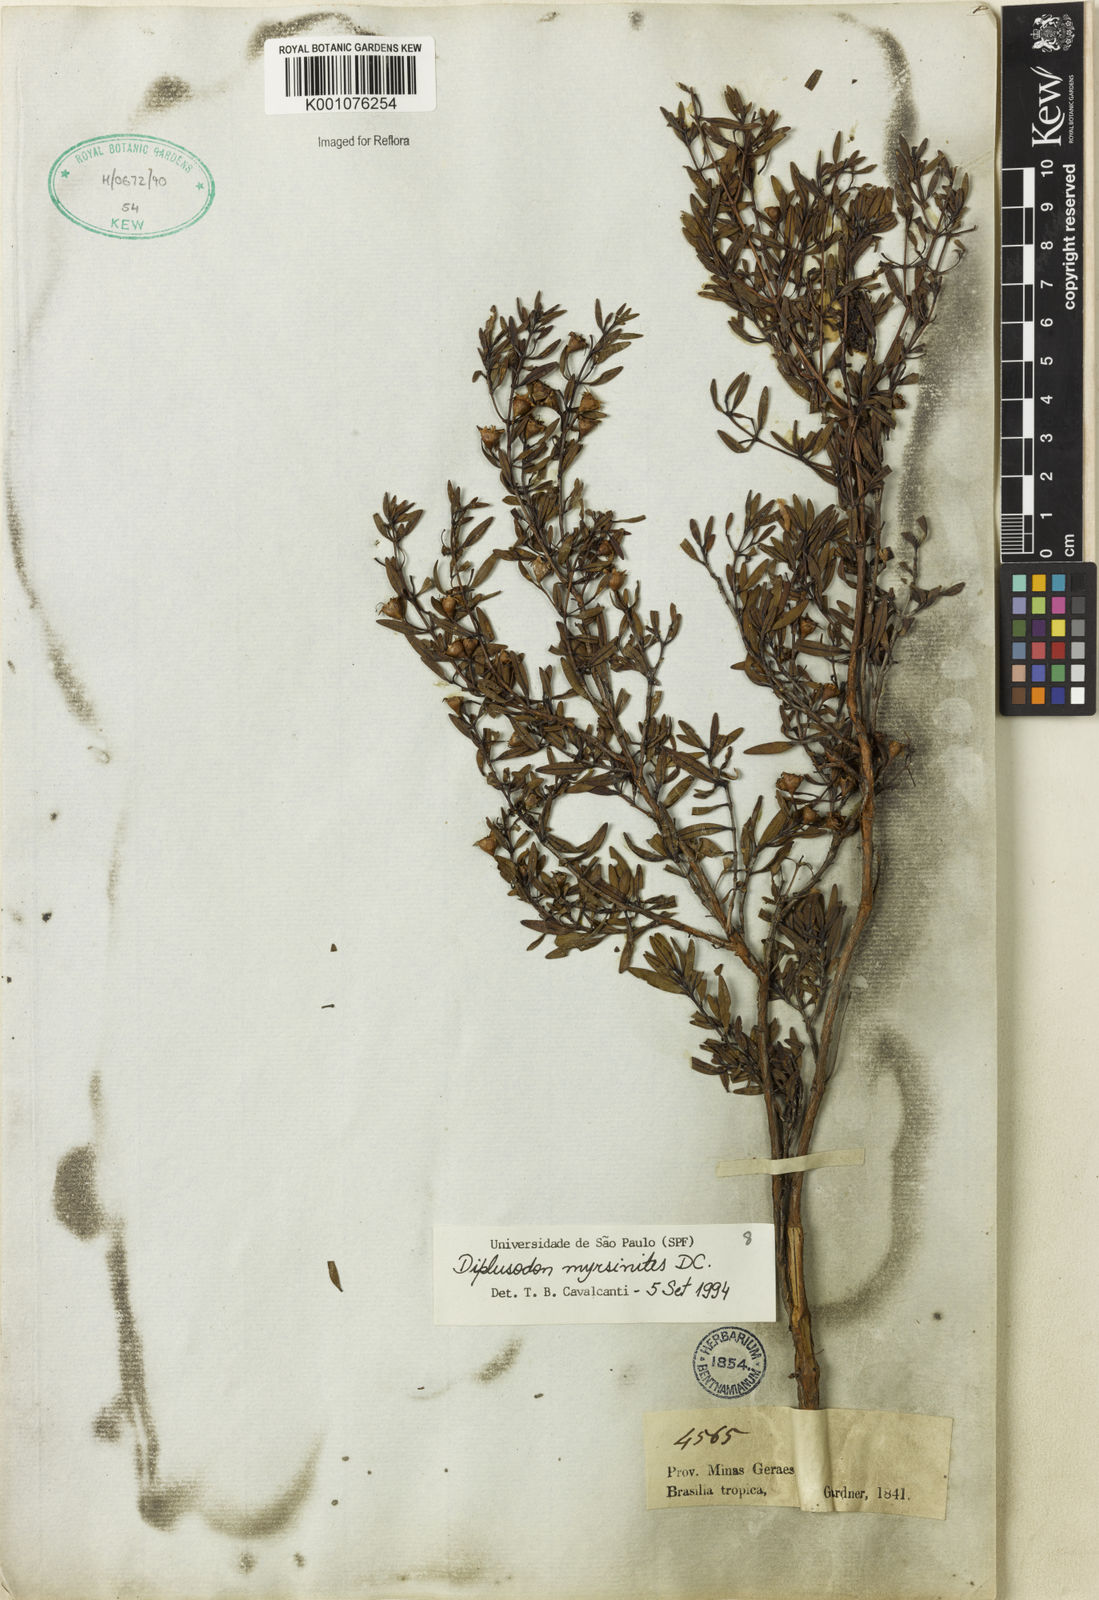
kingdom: Plantae
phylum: Tracheophyta
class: Magnoliopsida
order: Myrtales
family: Lythraceae
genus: Diplusodon
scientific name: Diplusodon myrsinites
